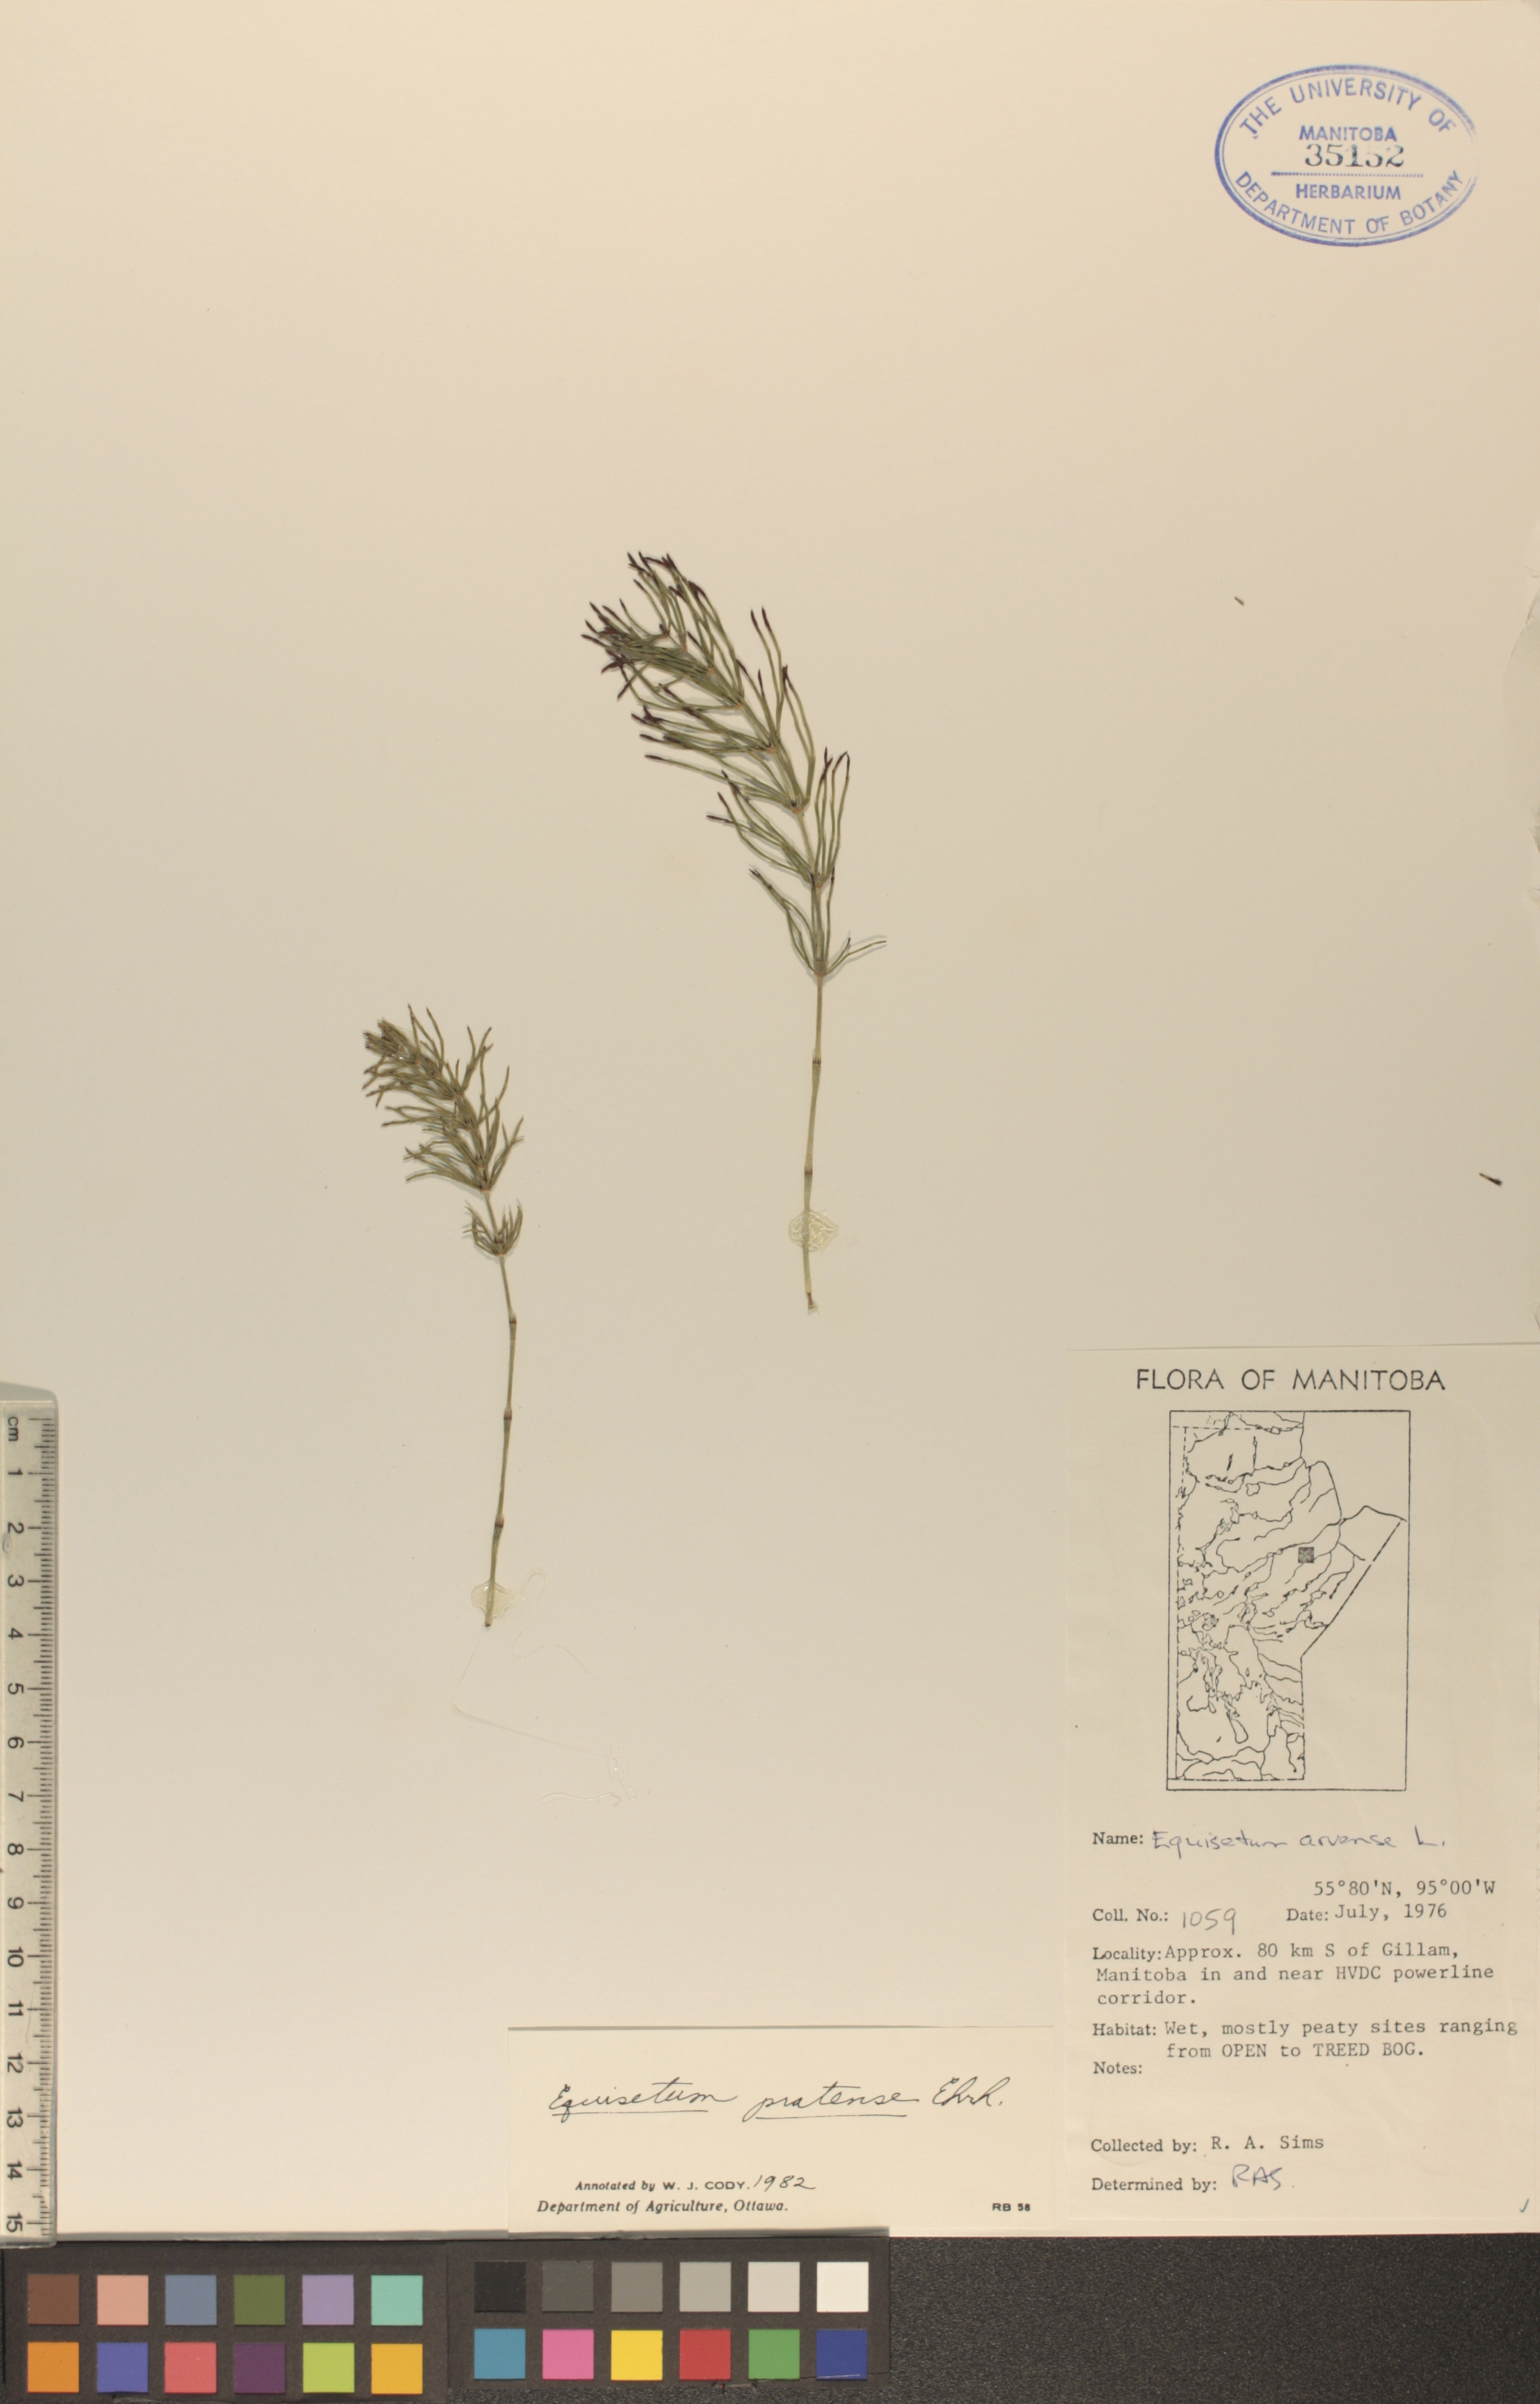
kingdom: Plantae
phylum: Tracheophyta
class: Polypodiopsida
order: Equisetales
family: Equisetaceae
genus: Equisetum
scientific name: Equisetum pratense
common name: Meadow horsetail
